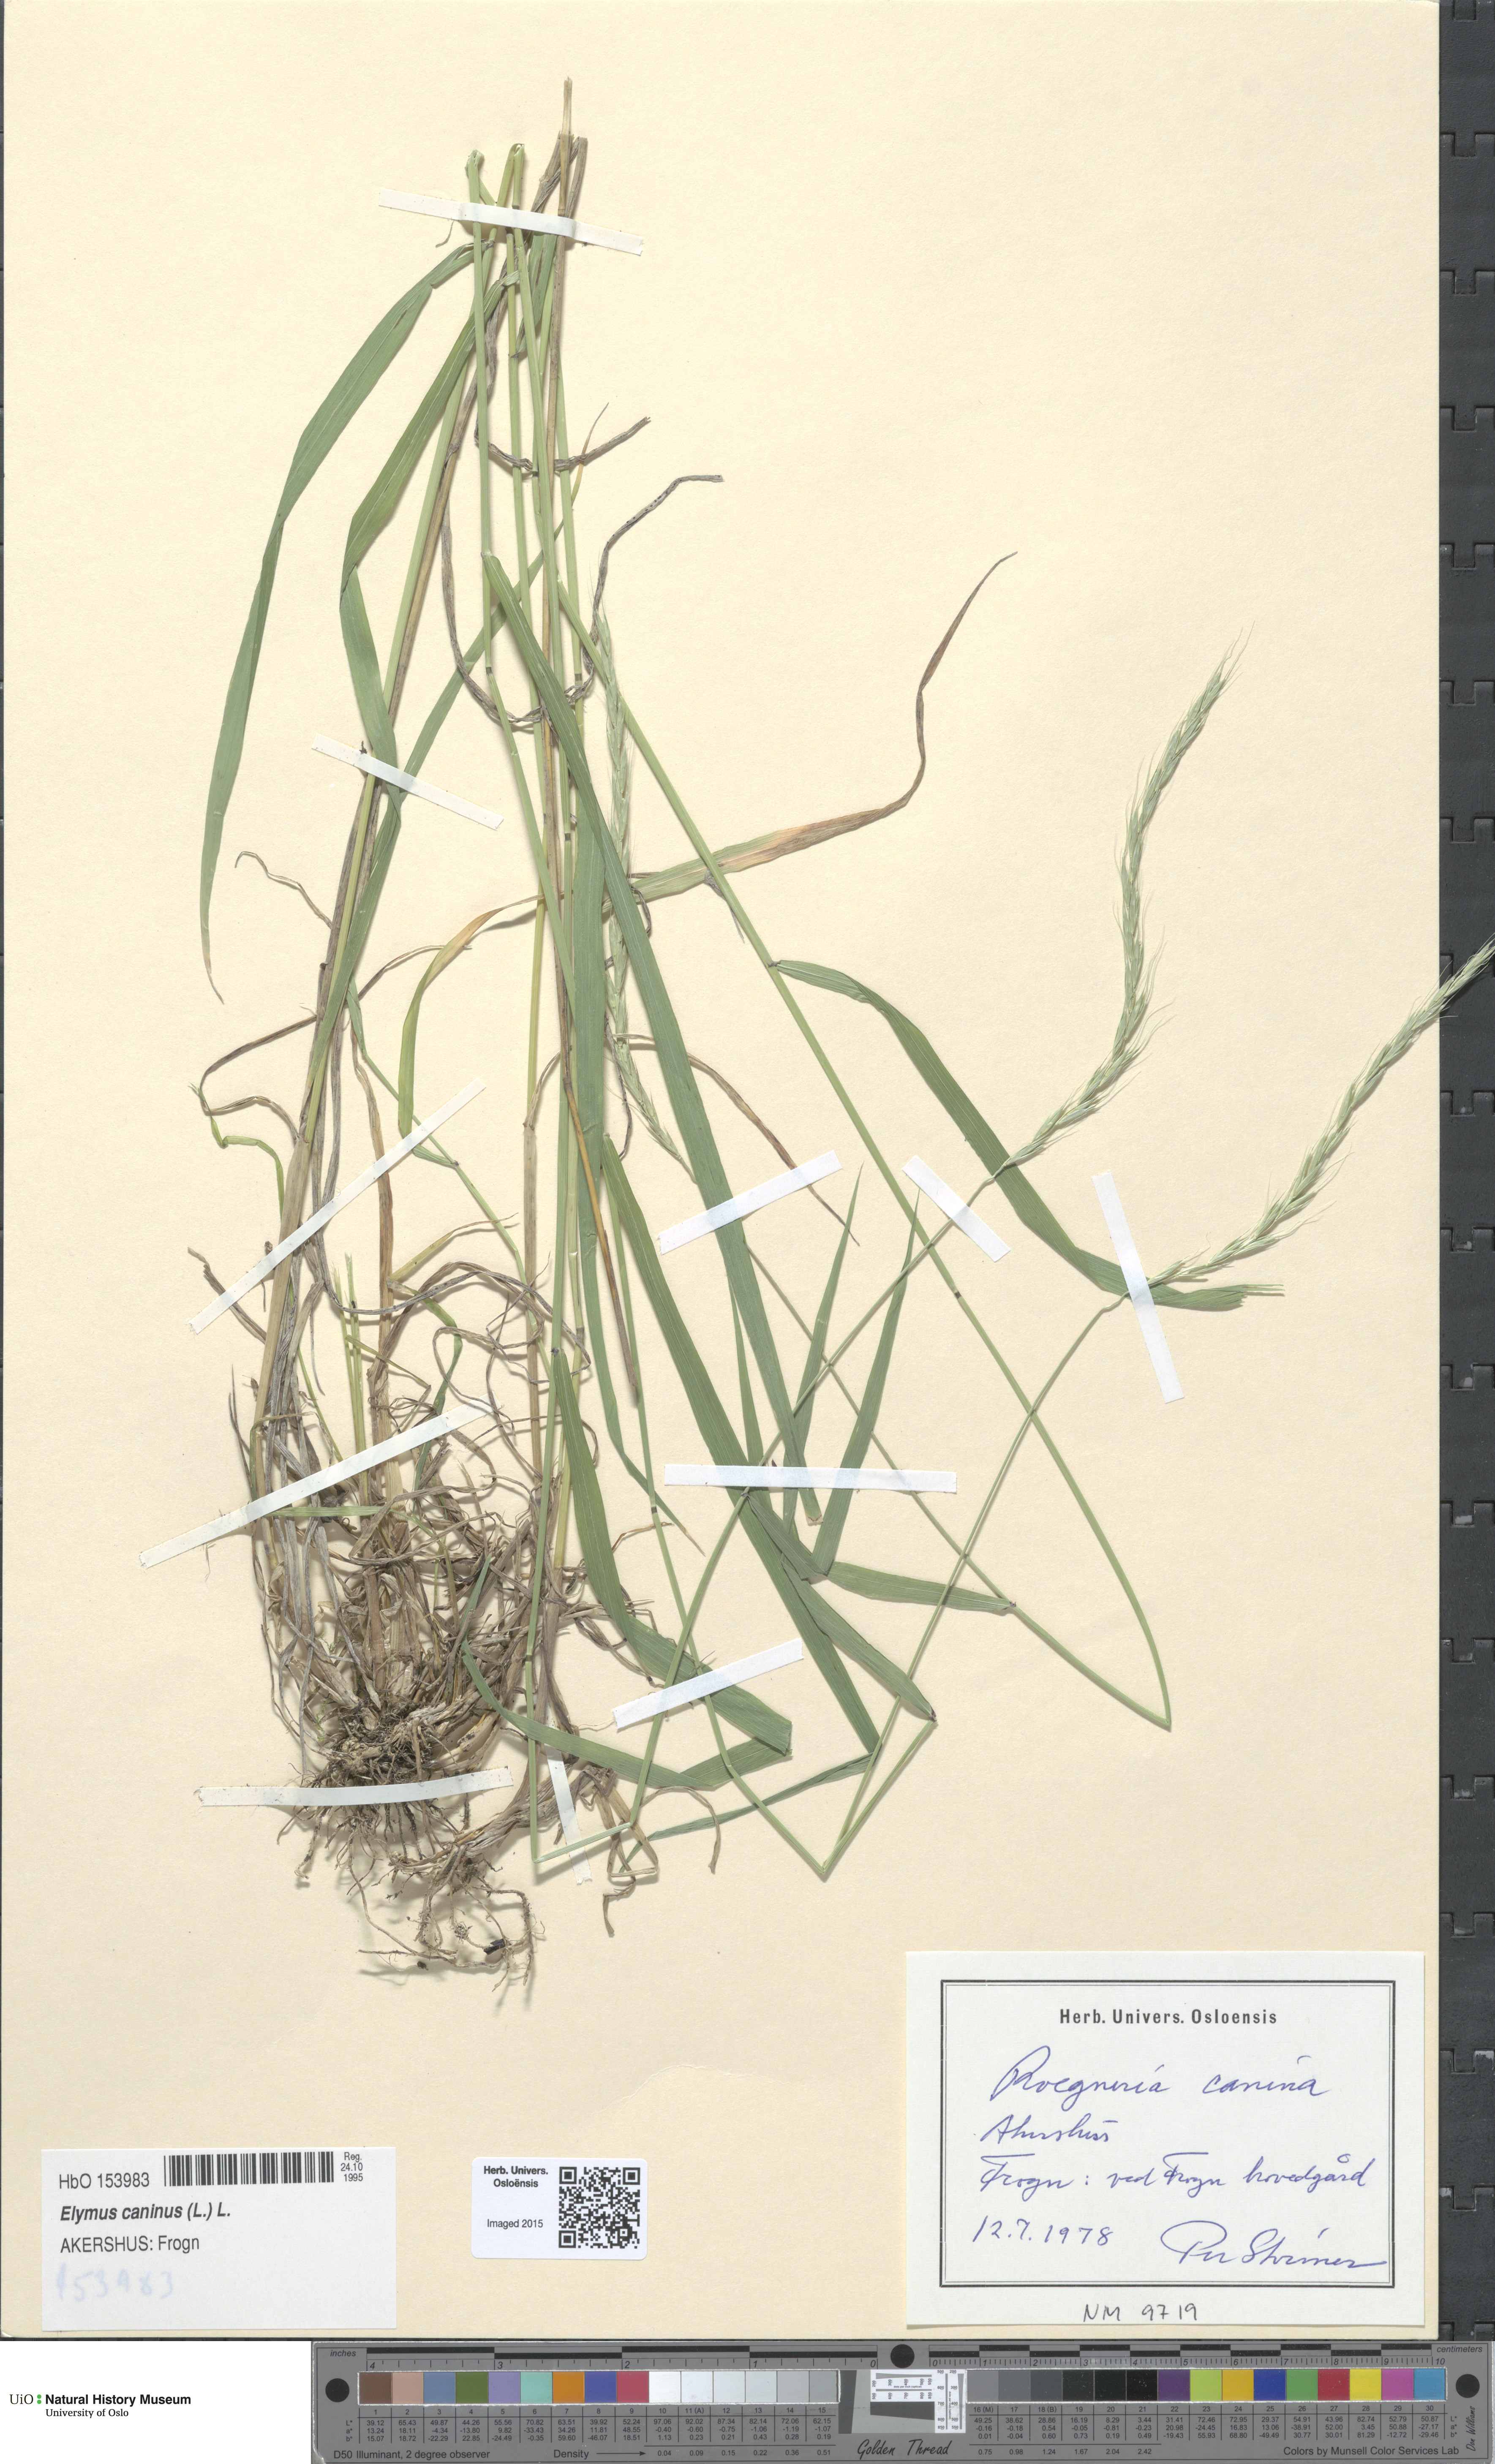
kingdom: Plantae
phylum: Tracheophyta
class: Liliopsida
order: Poales
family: Poaceae
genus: Elymus
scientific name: Elymus caninus
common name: Bearded couch
